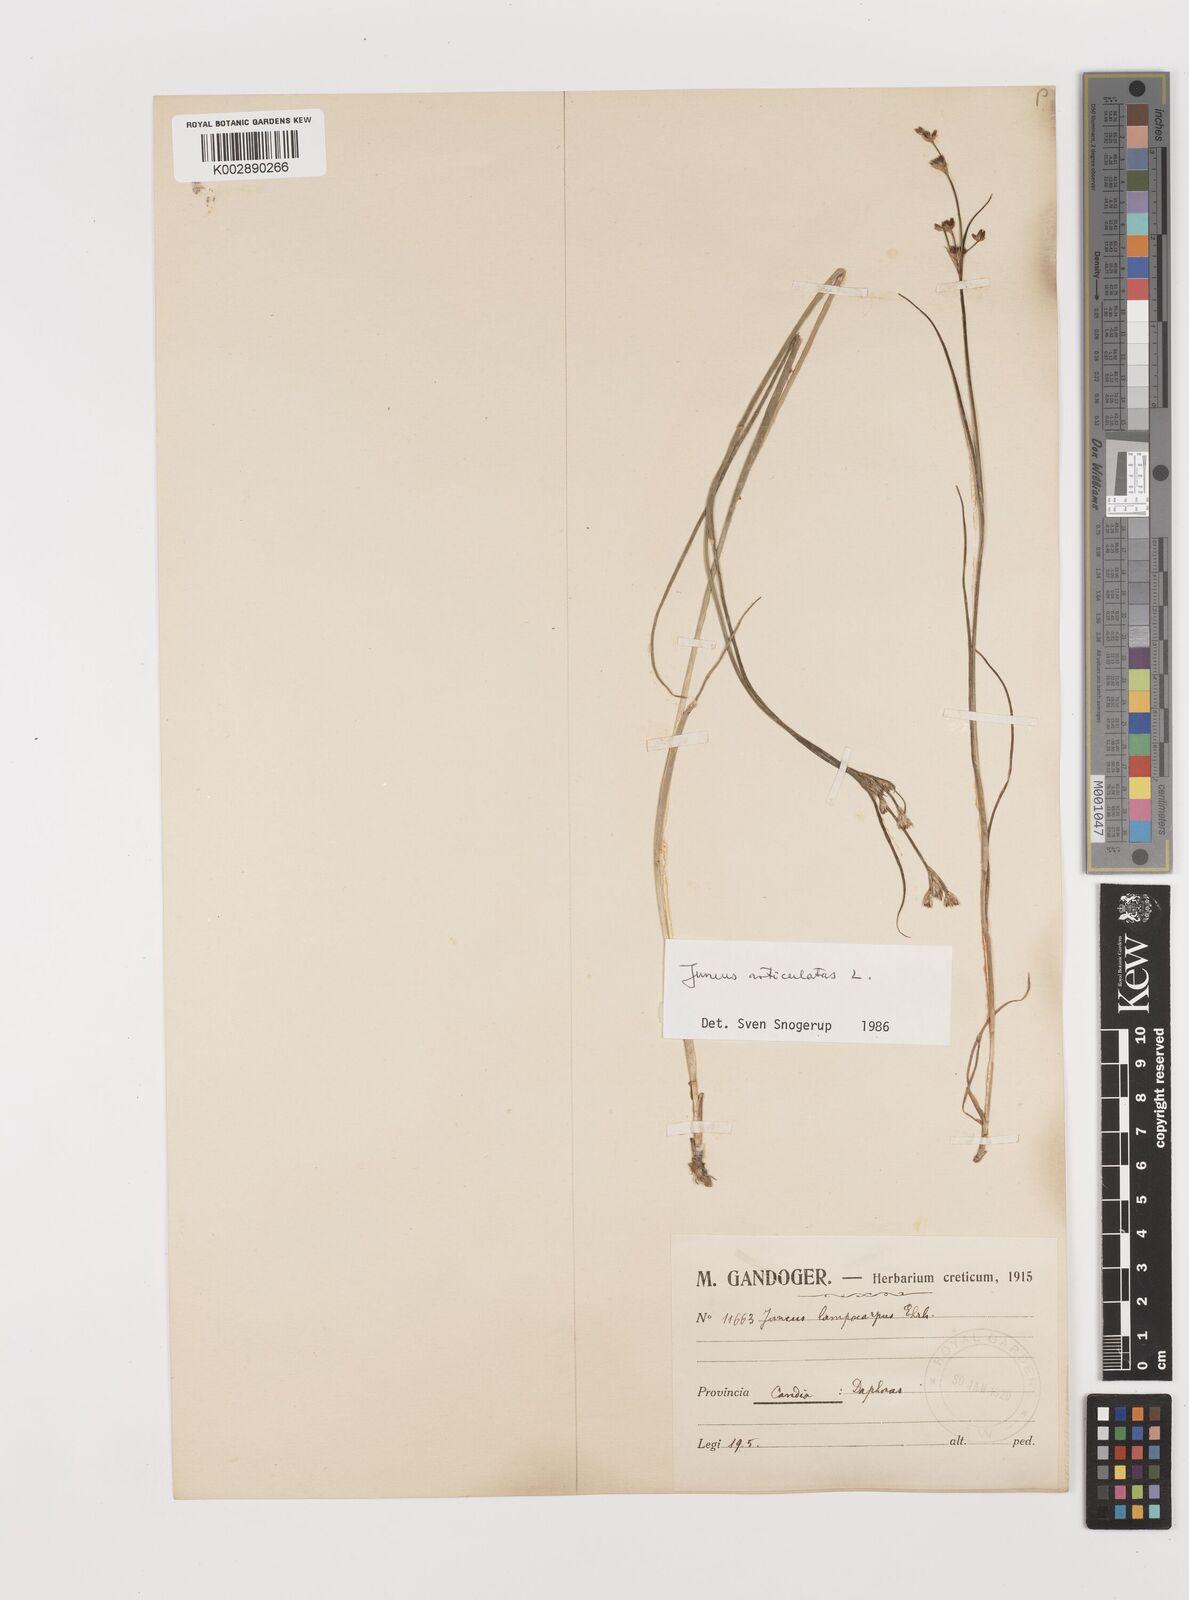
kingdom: Plantae
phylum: Tracheophyta
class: Liliopsida
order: Poales
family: Juncaceae
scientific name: Juncaceae
